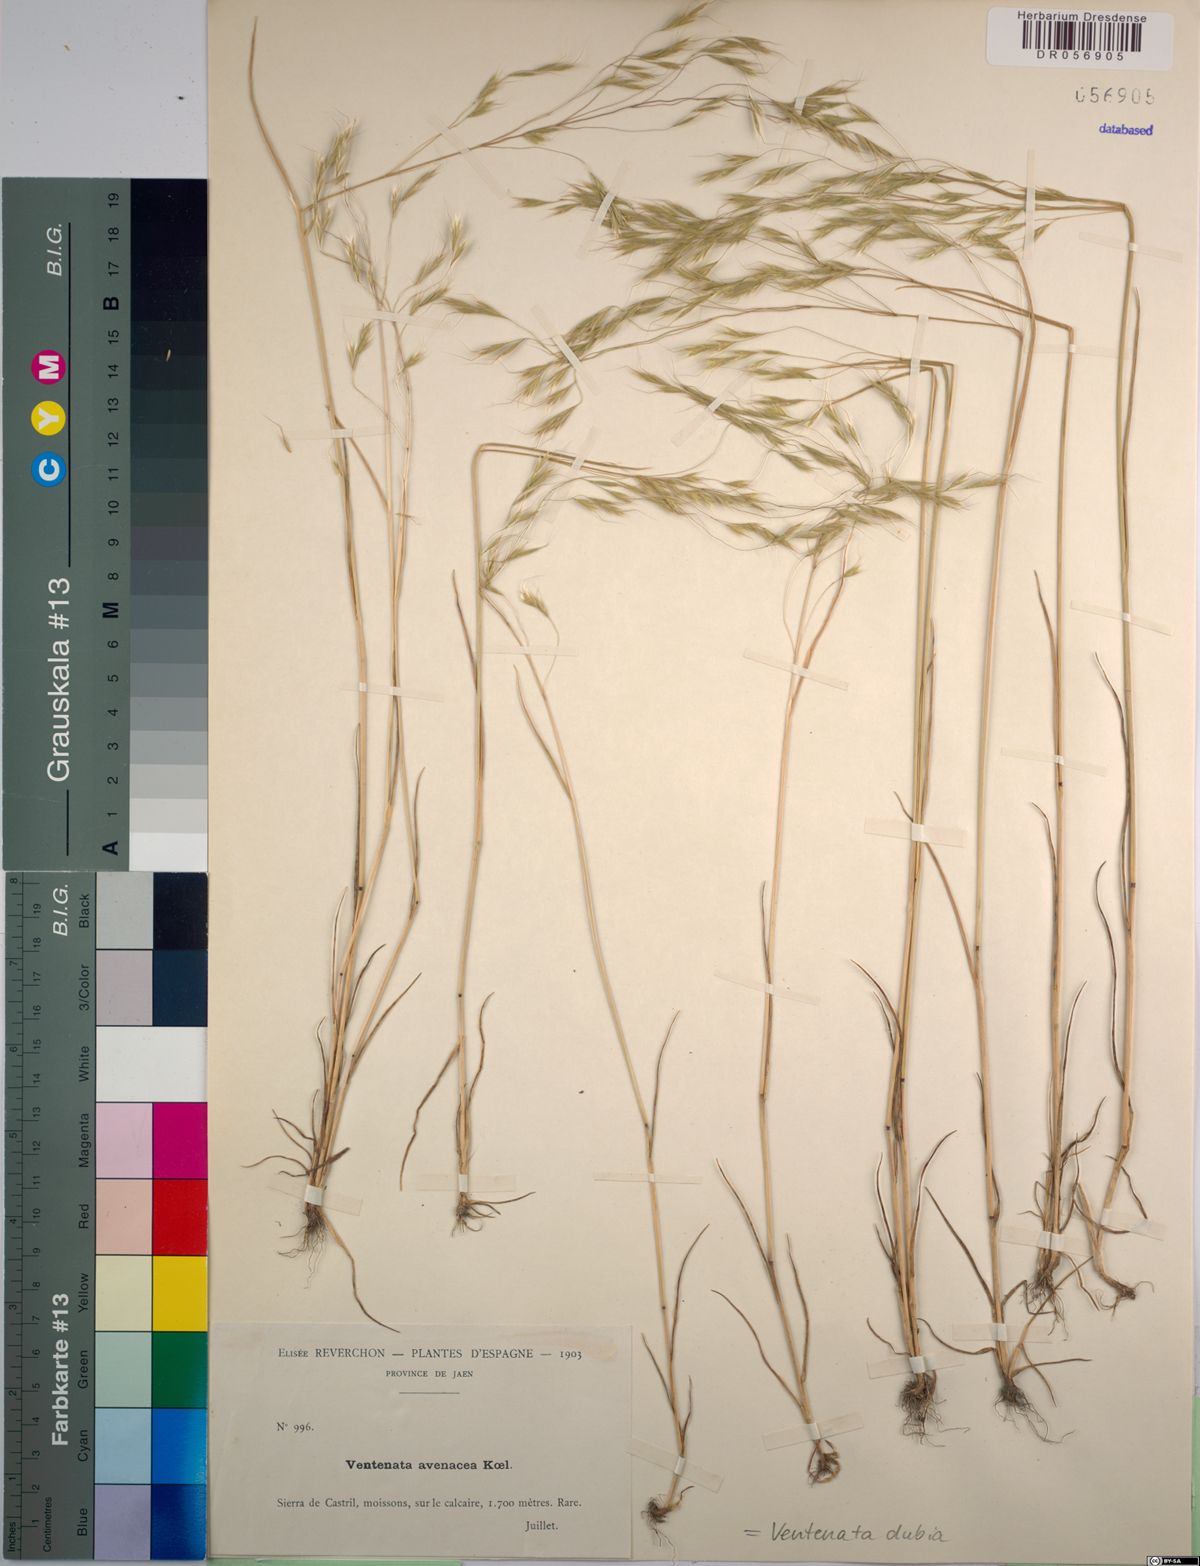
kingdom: Plantae
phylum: Tracheophyta
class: Liliopsida
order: Poales
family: Poaceae
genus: Ventenata
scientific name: Ventenata dubia
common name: North africa grass
